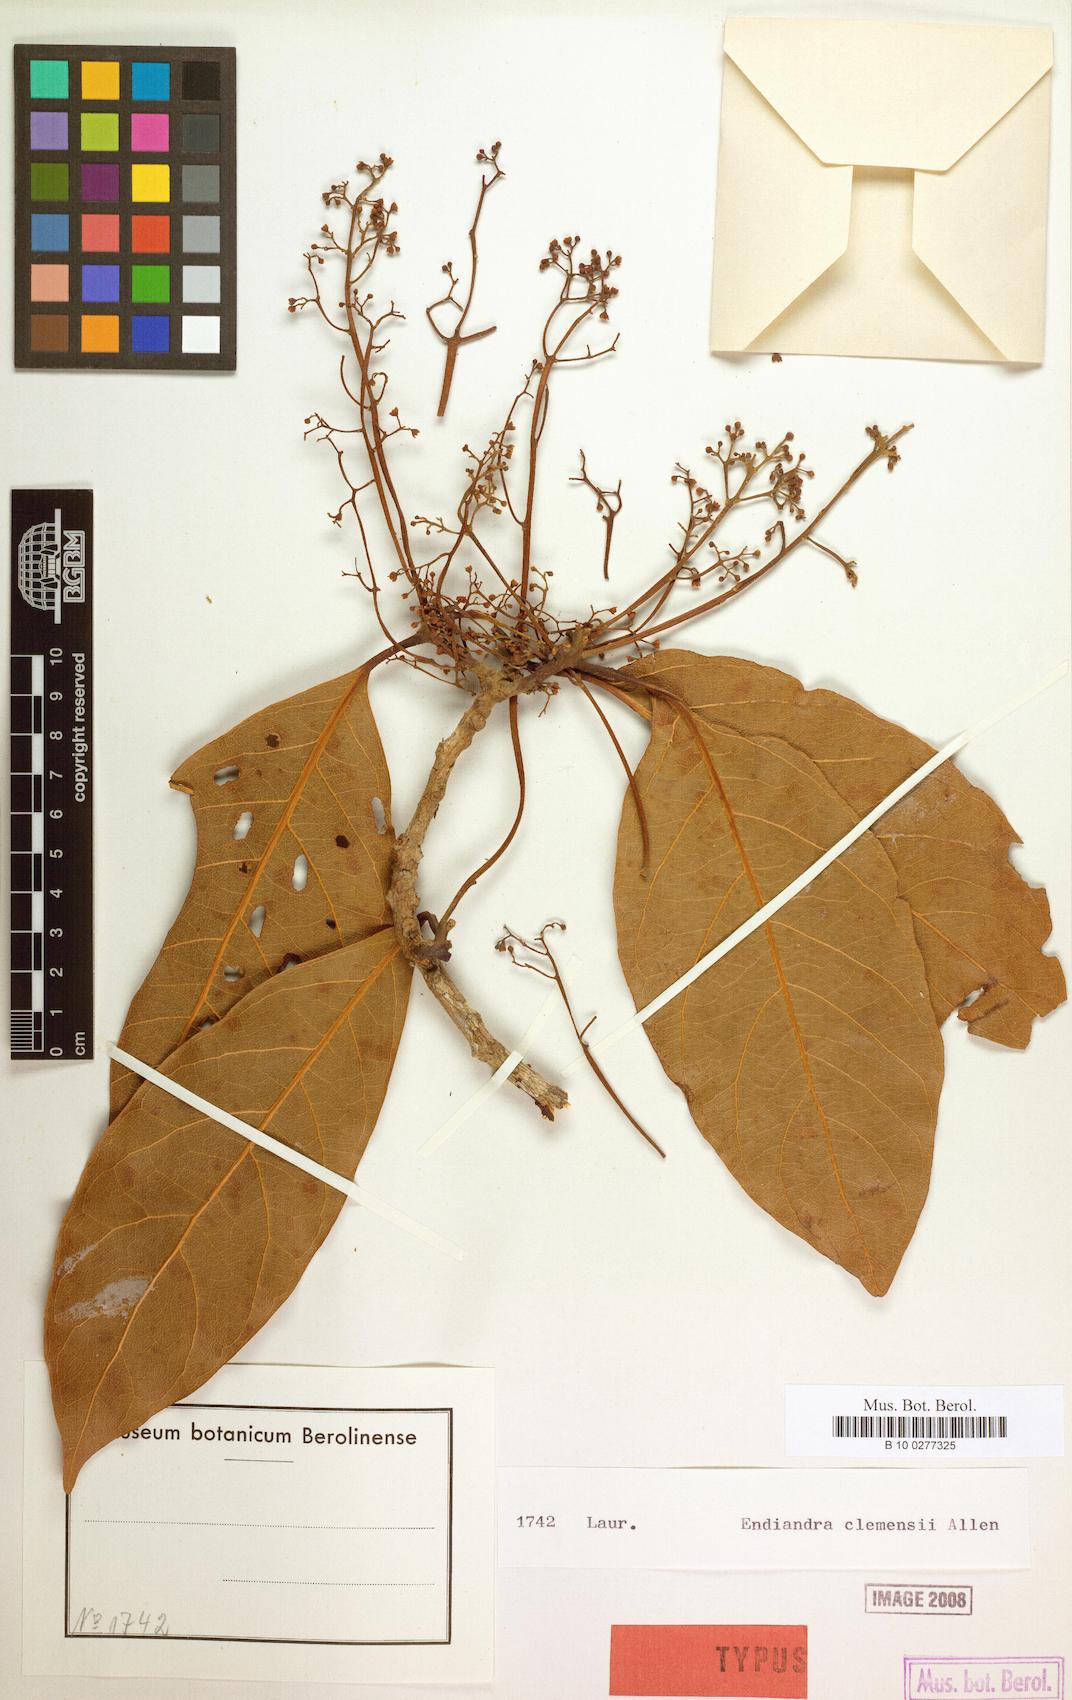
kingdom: Plantae
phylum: Tracheophyta
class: Magnoliopsida
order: Laurales
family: Lauraceae
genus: Endiandra
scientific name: Endiandra clemensii
